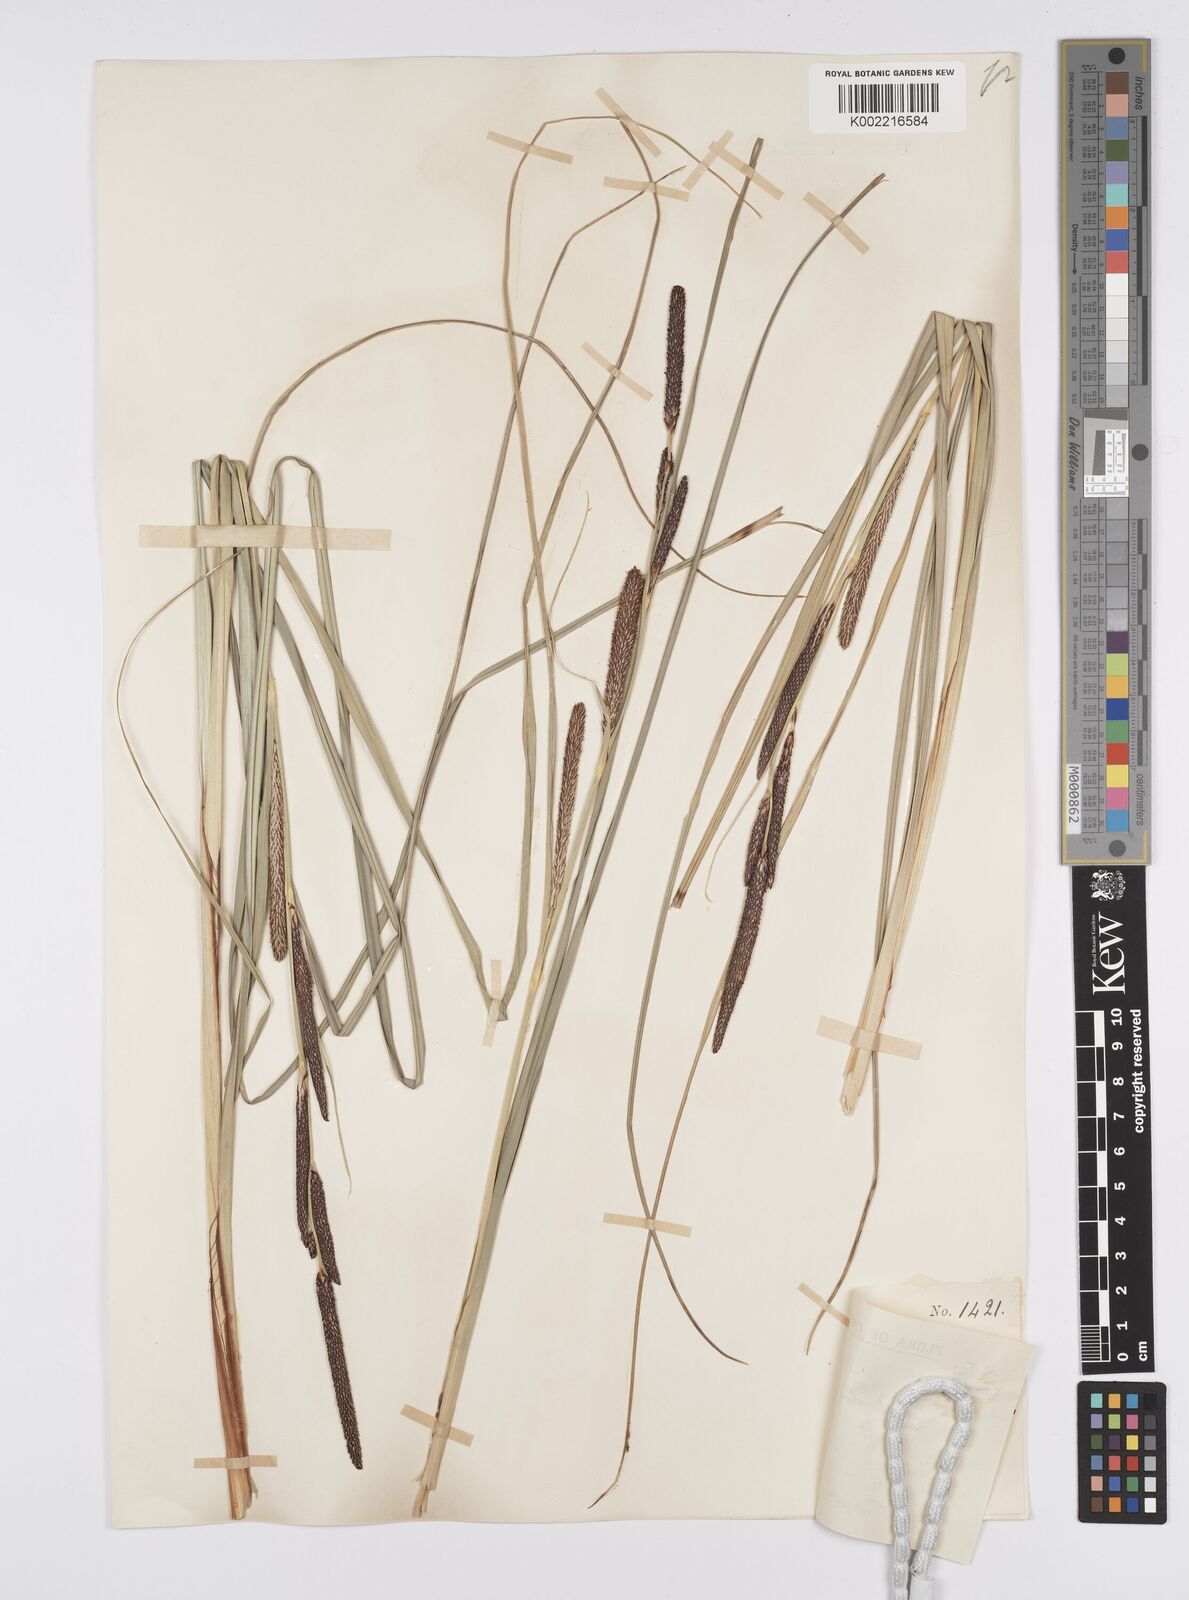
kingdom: Plantae
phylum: Tracheophyta
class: Liliopsida
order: Poales
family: Cyperaceae
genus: Carex
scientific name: Carex hispida
